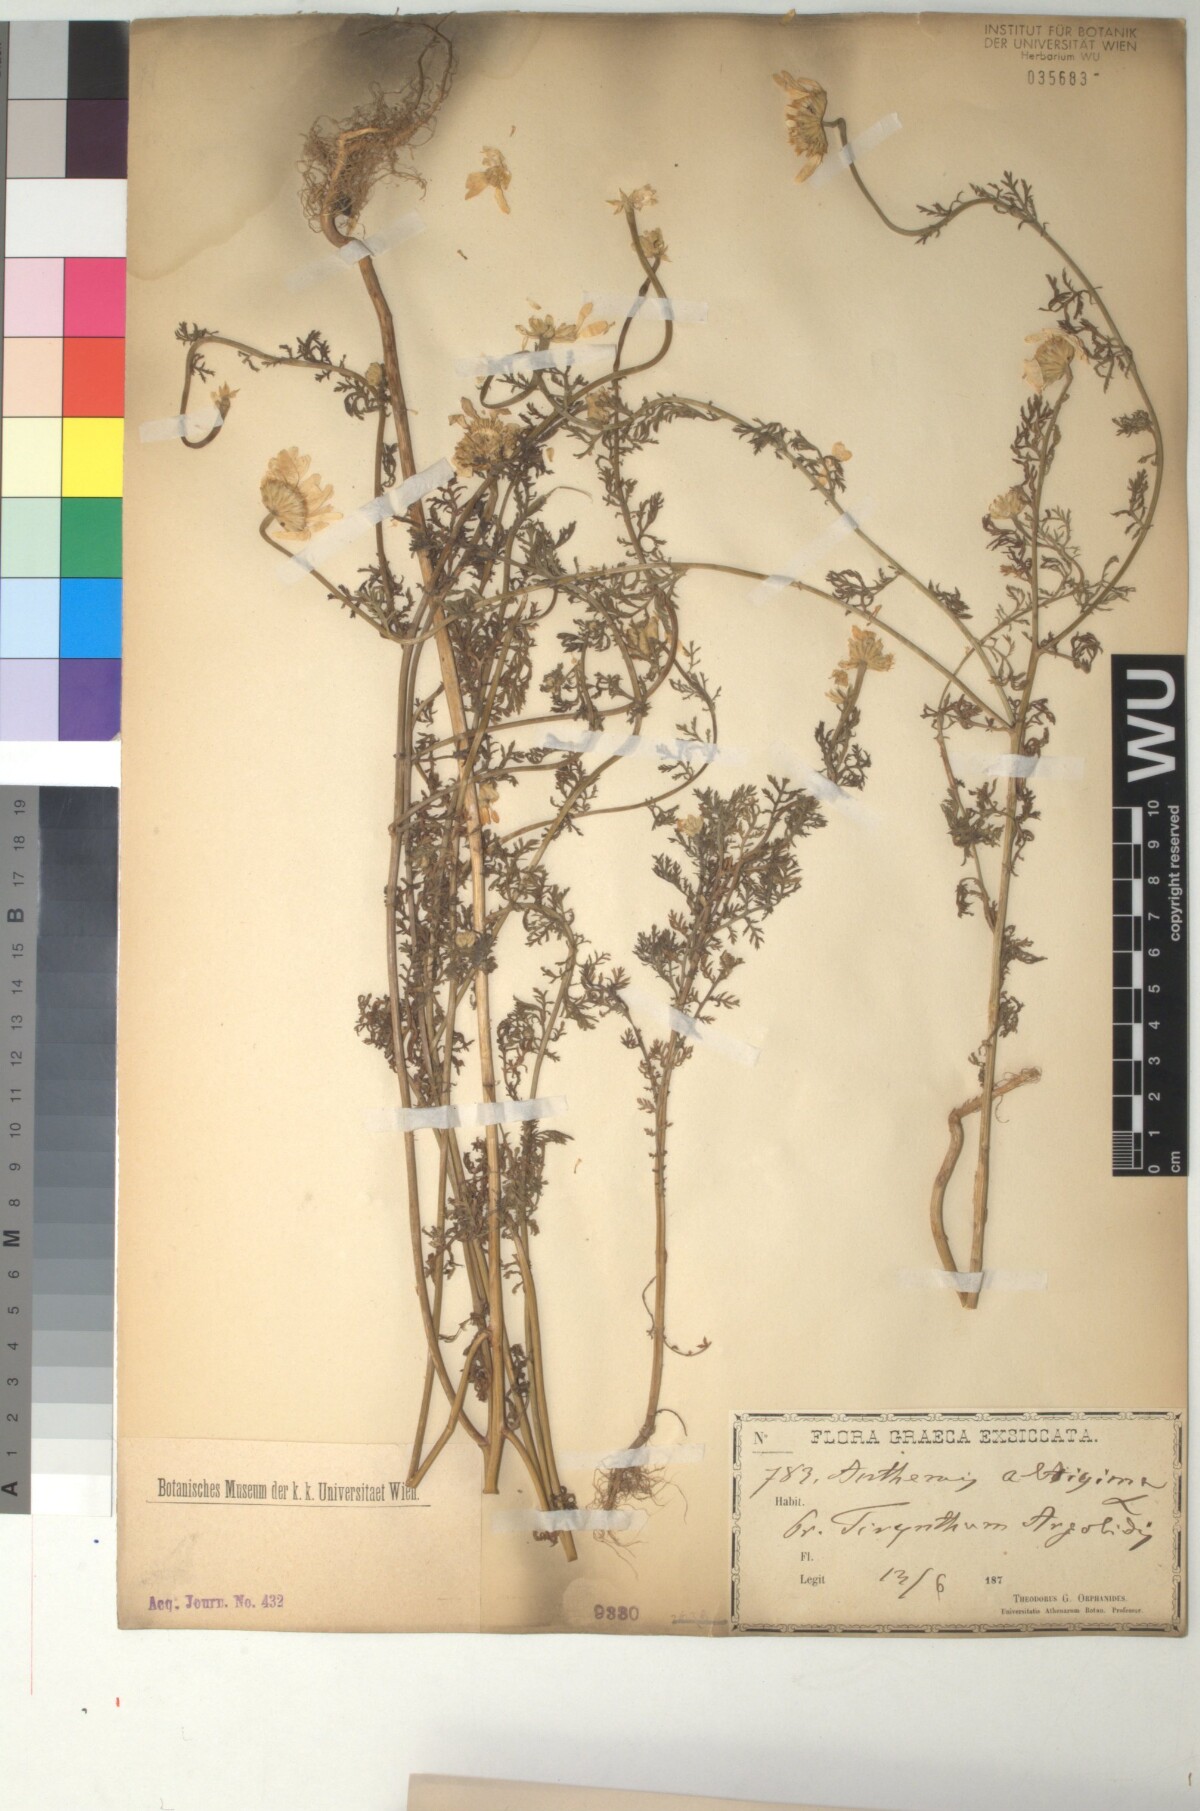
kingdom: Plantae
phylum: Tracheophyta
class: Magnoliopsida
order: Asterales
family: Asteraceae
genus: Cota
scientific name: Cota altissima
